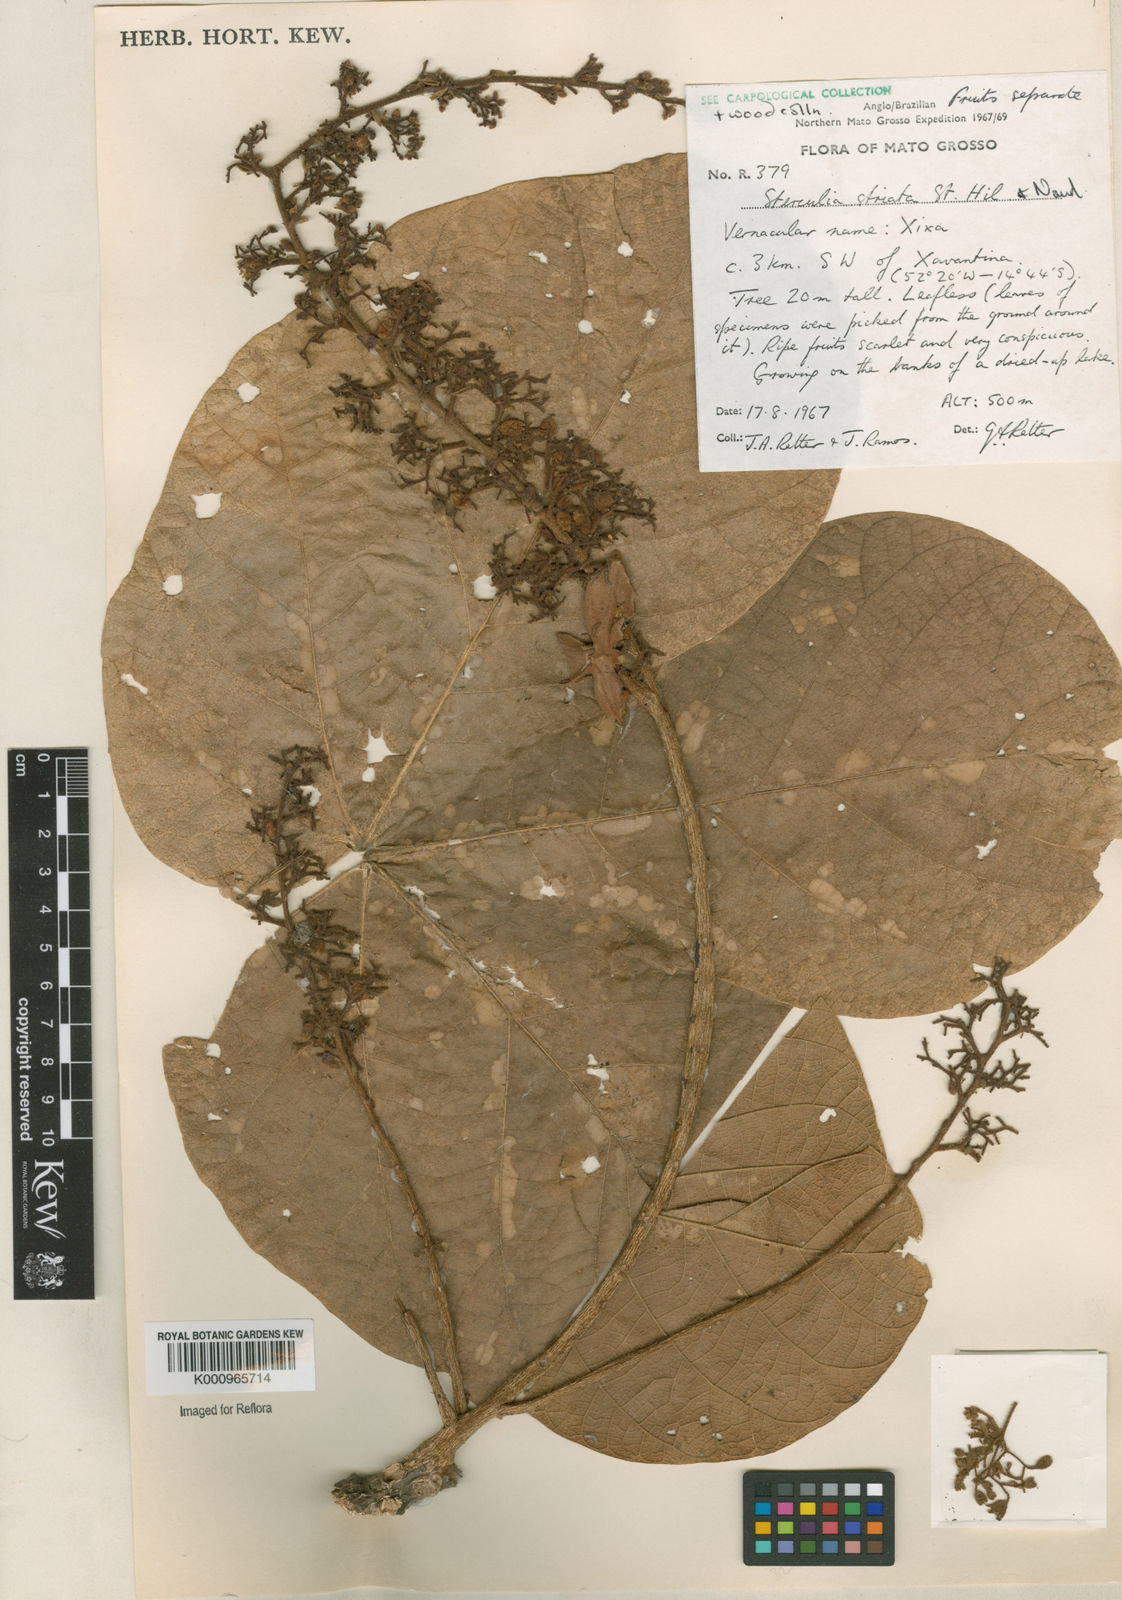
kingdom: Plantae
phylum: Tracheophyta
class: Magnoliopsida
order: Malvales
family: Malvaceae
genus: Sterculia
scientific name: Sterculia striata
